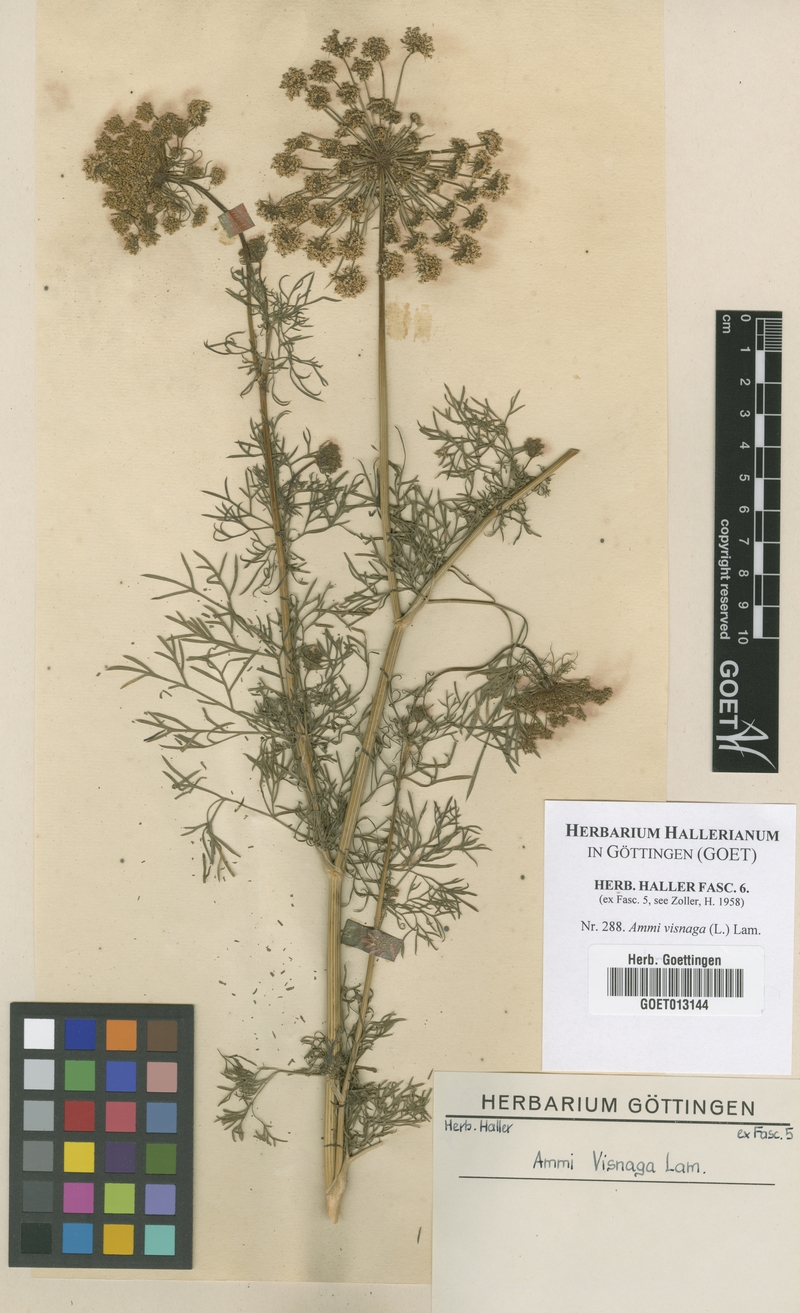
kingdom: Plantae
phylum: Tracheophyta
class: Magnoliopsida
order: Apiales
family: Apiaceae
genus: Visnaga
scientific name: Visnaga daucoides
